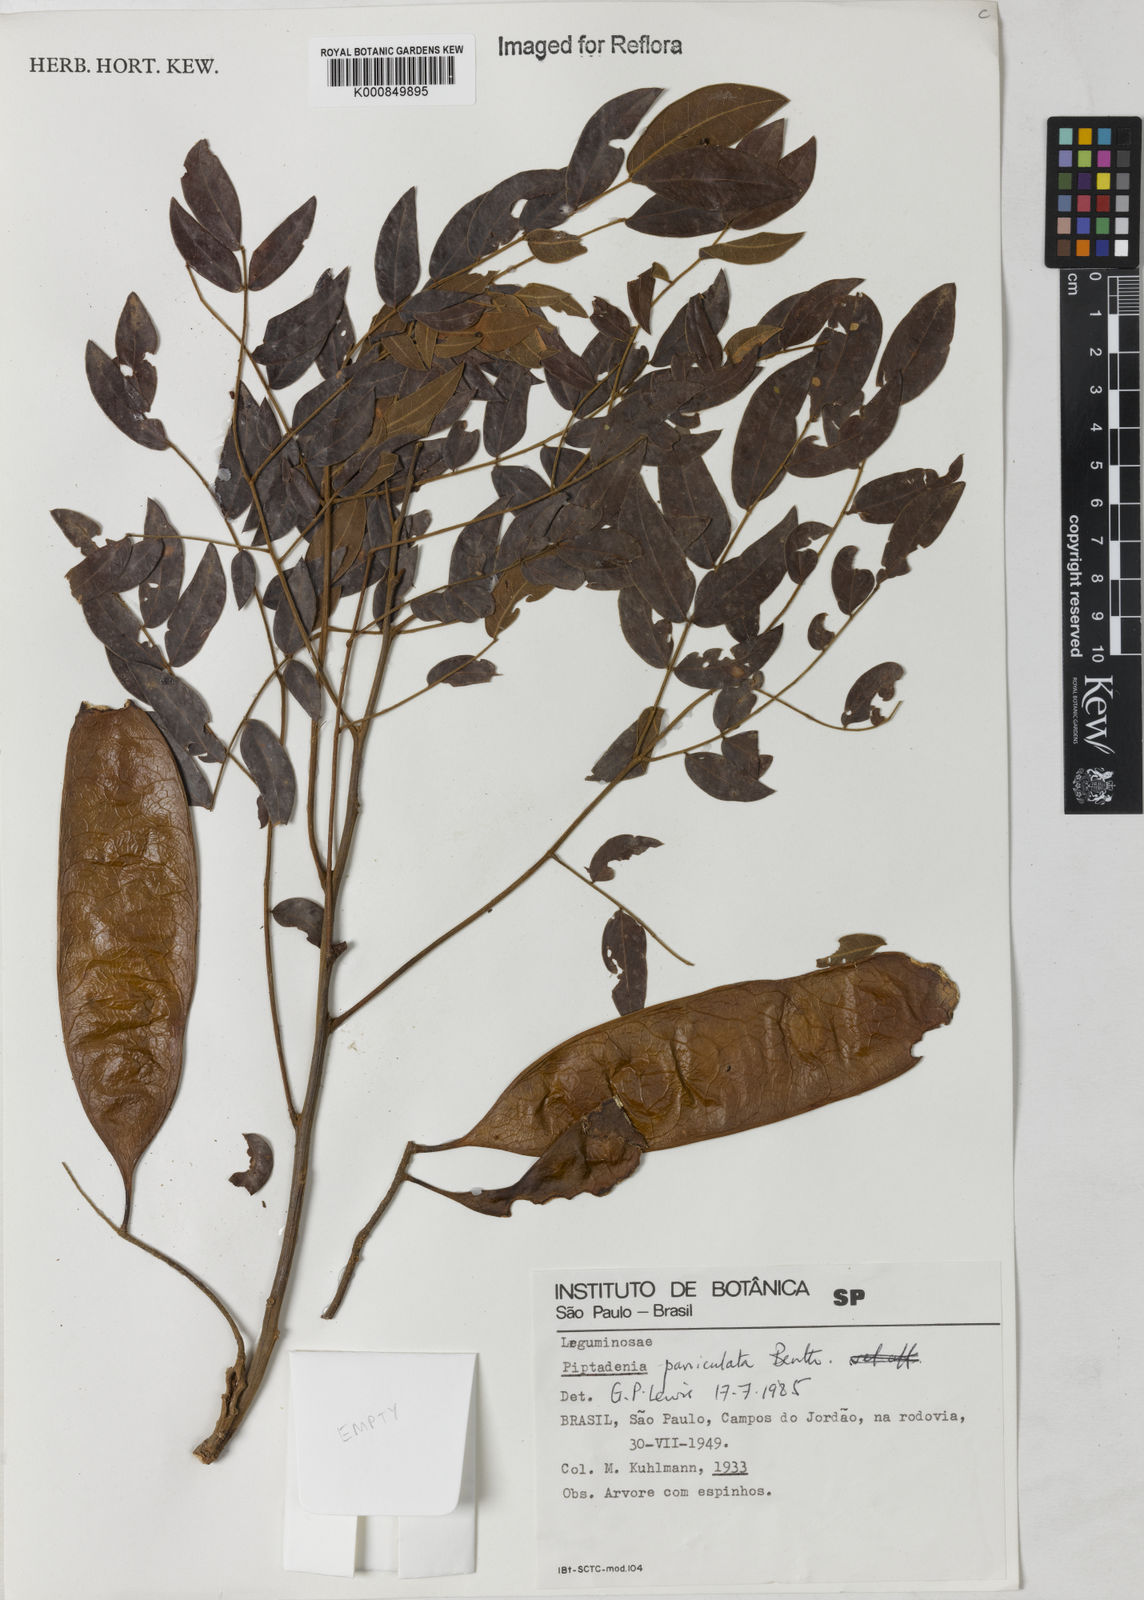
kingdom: Plantae
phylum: Tracheophyta
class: Magnoliopsida
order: Fabales
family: Fabaceae
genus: Piptadenia
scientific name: Piptadenia paniculata
